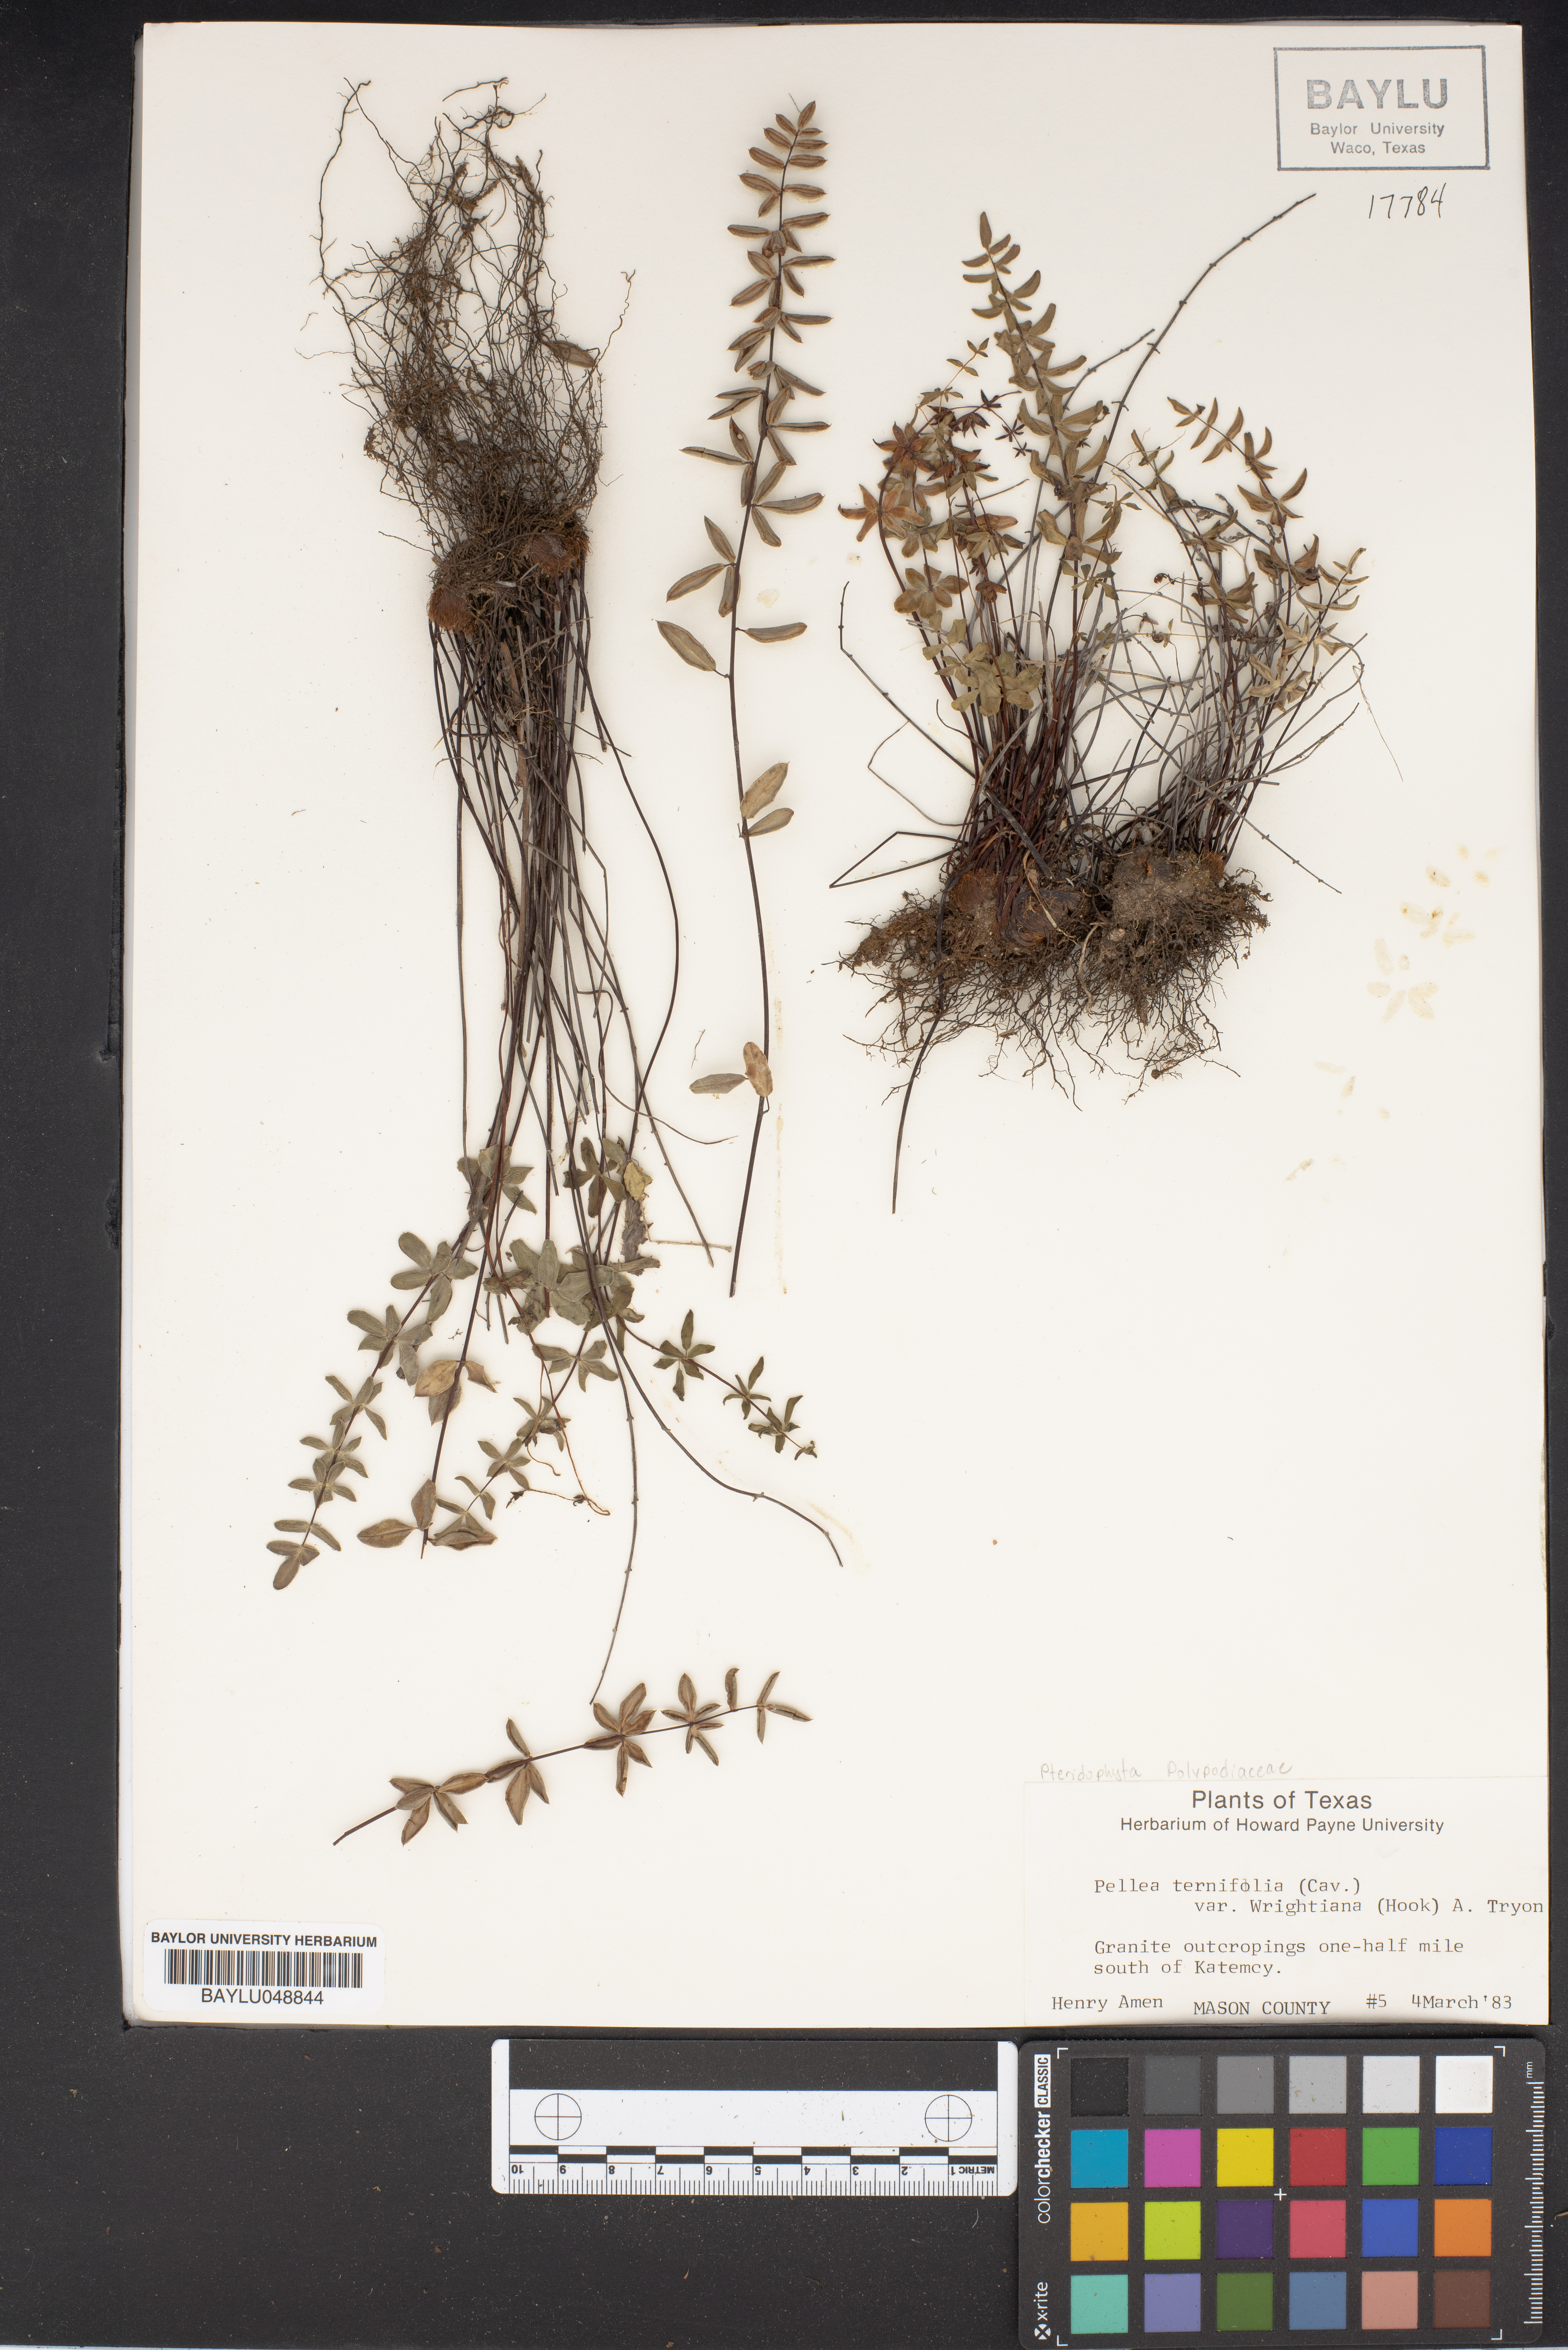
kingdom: Plantae
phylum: Tracheophyta
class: Polypodiopsida
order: Polypodiales
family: Pteridaceae
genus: Pellaea
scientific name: Pellaea ternifolia
